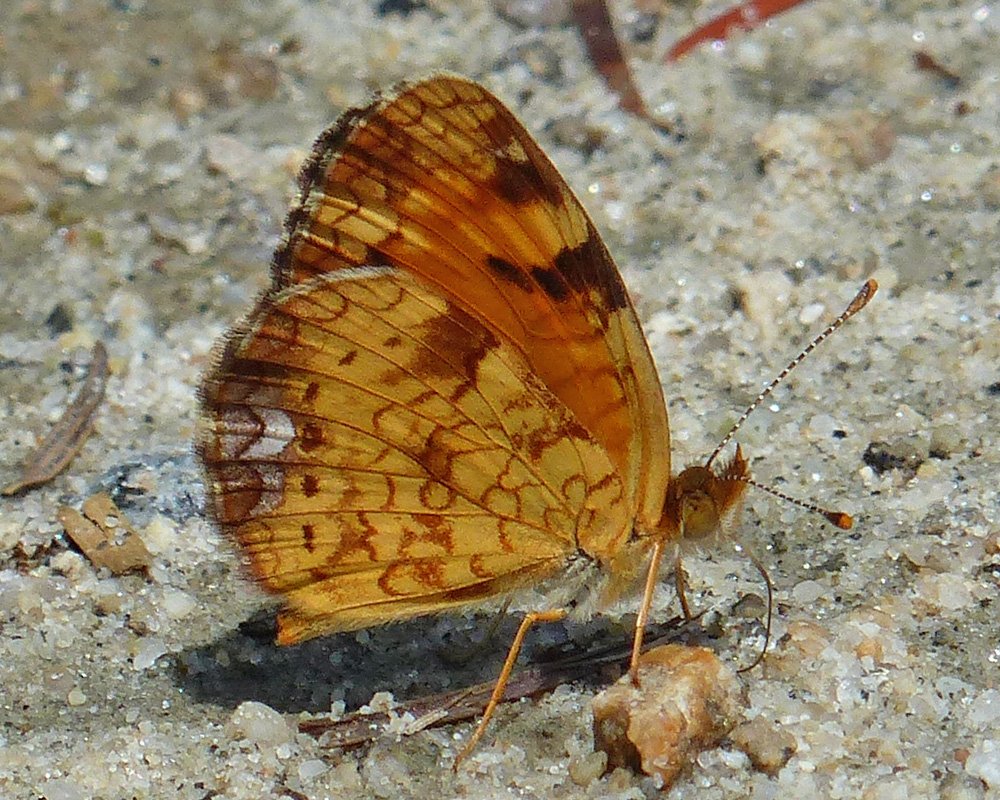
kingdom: Animalia
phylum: Arthropoda
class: Insecta
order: Lepidoptera
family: Nymphalidae
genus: Phyciodes
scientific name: Phyciodes tharos
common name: Northern Crescent
